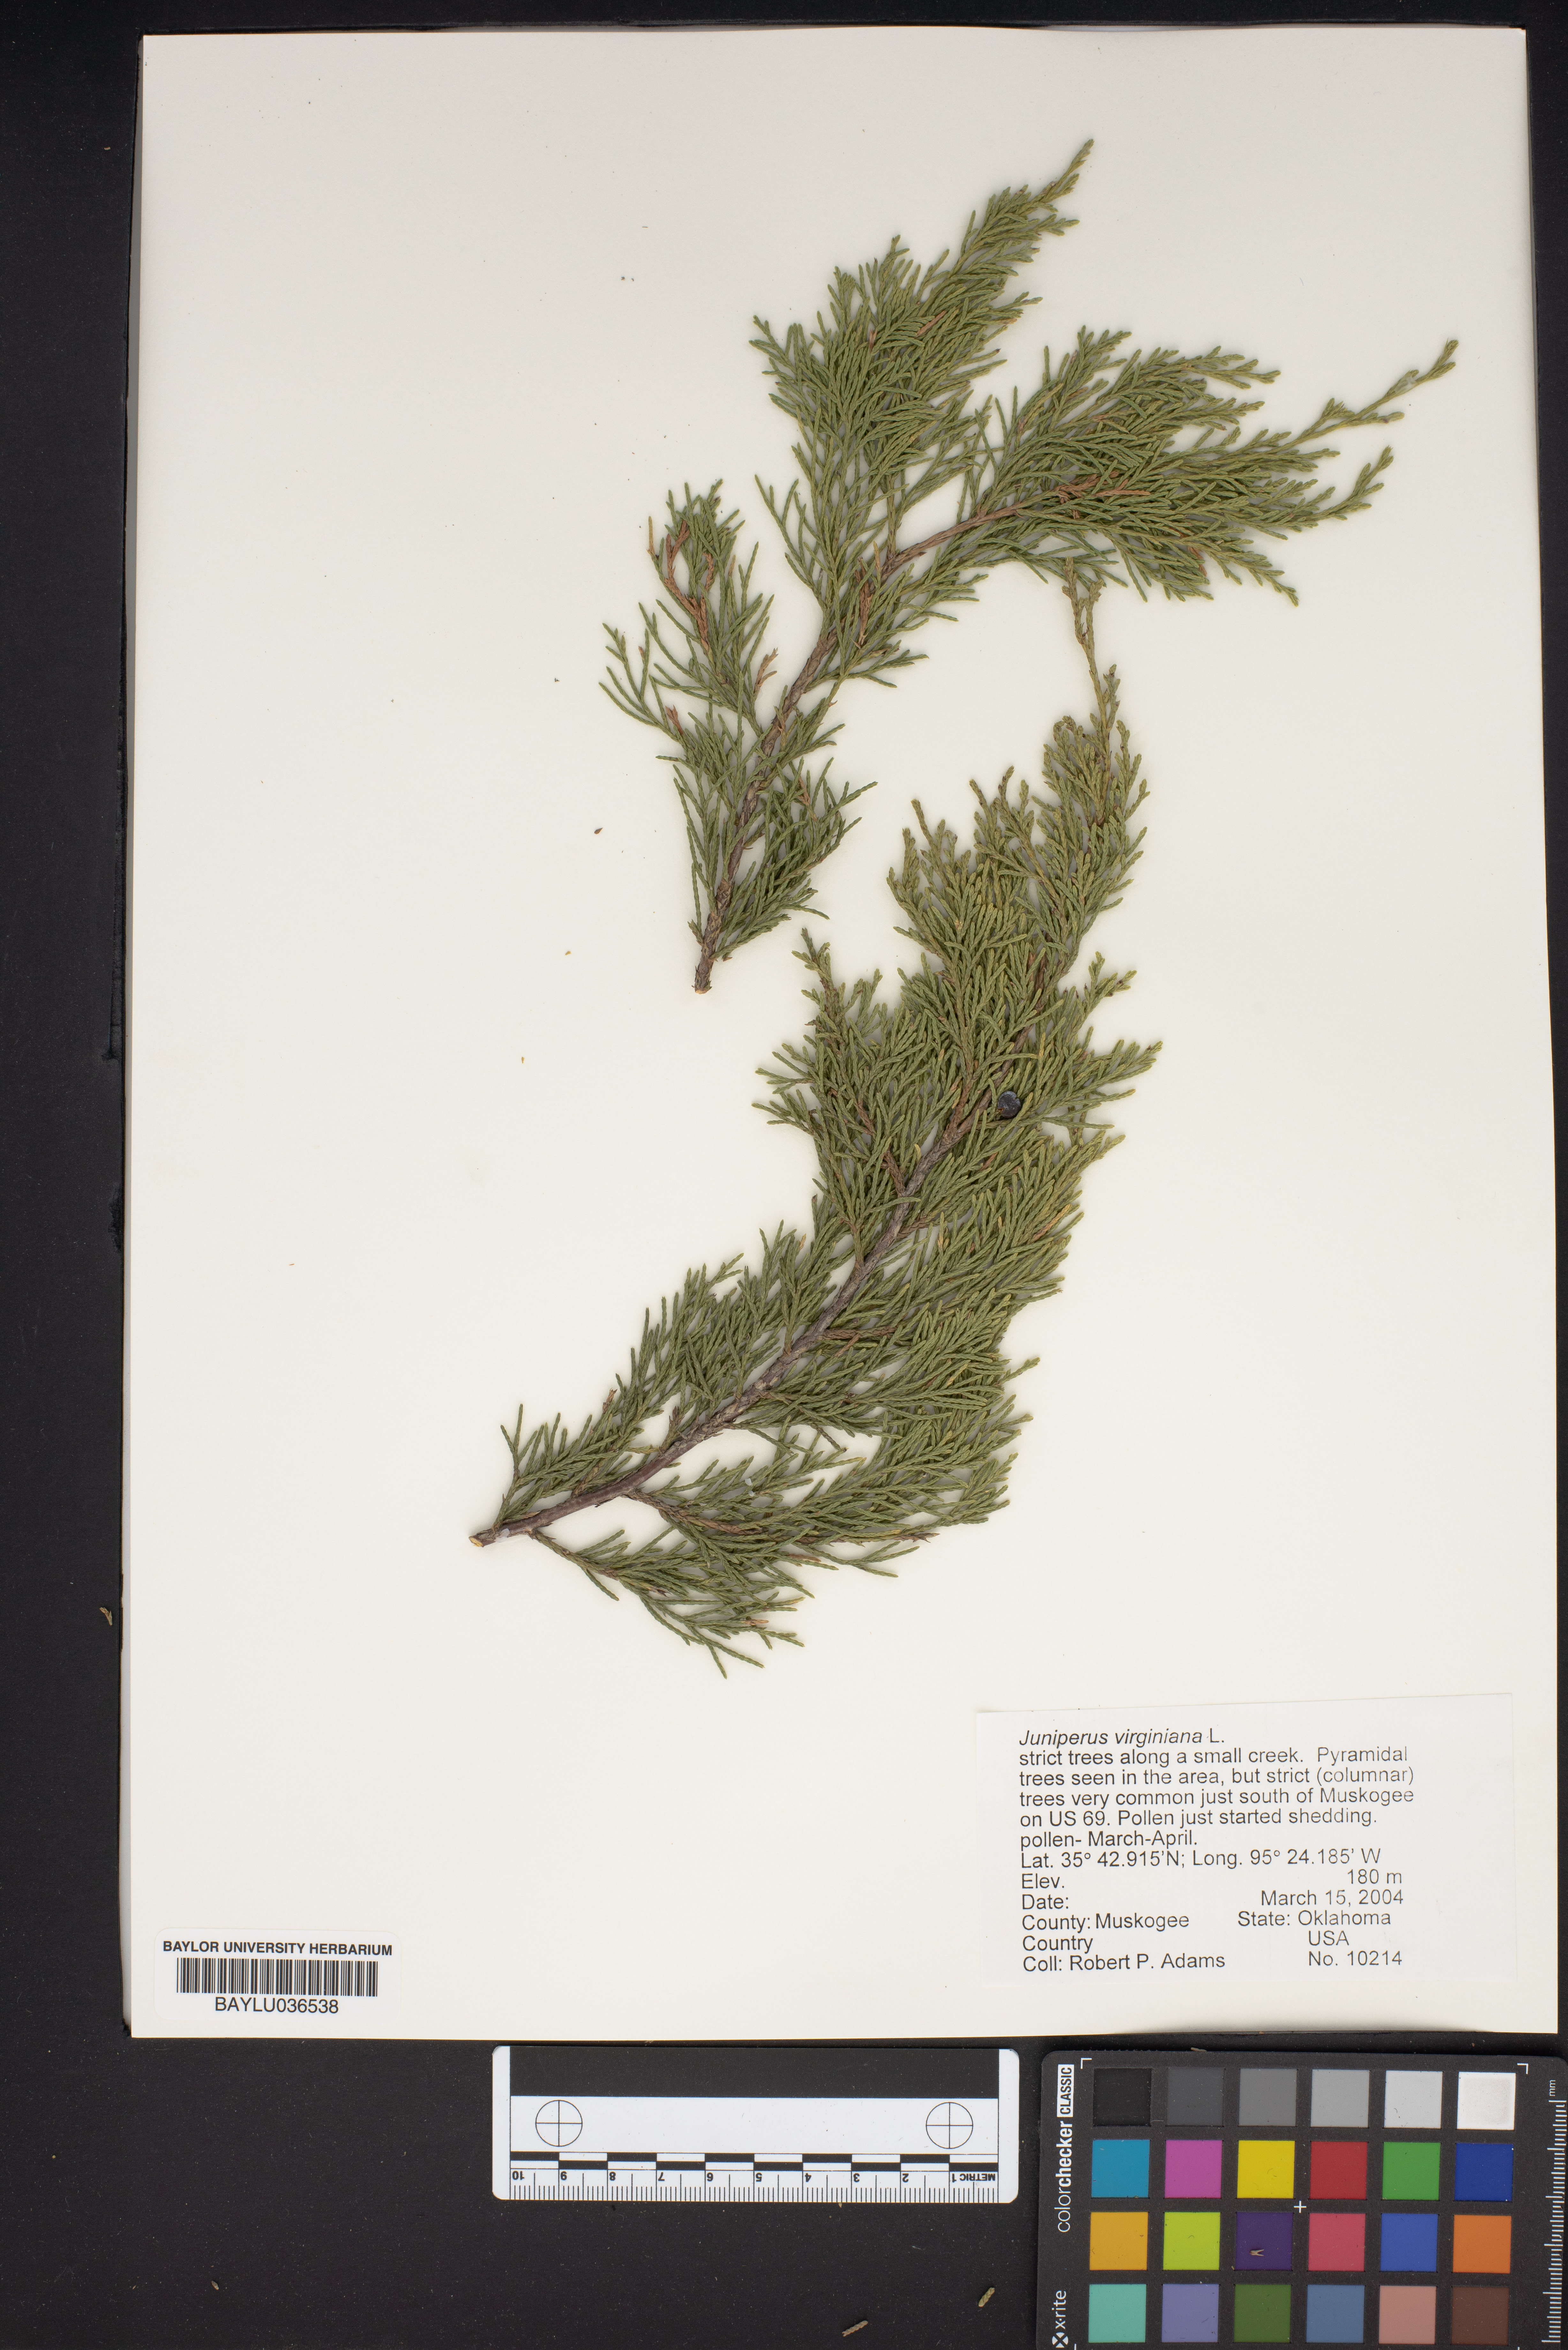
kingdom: Plantae
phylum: Tracheophyta
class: Pinopsida
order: Pinales
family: Cupressaceae
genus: Juniperus
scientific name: Juniperus virginiana
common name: Red juniper
